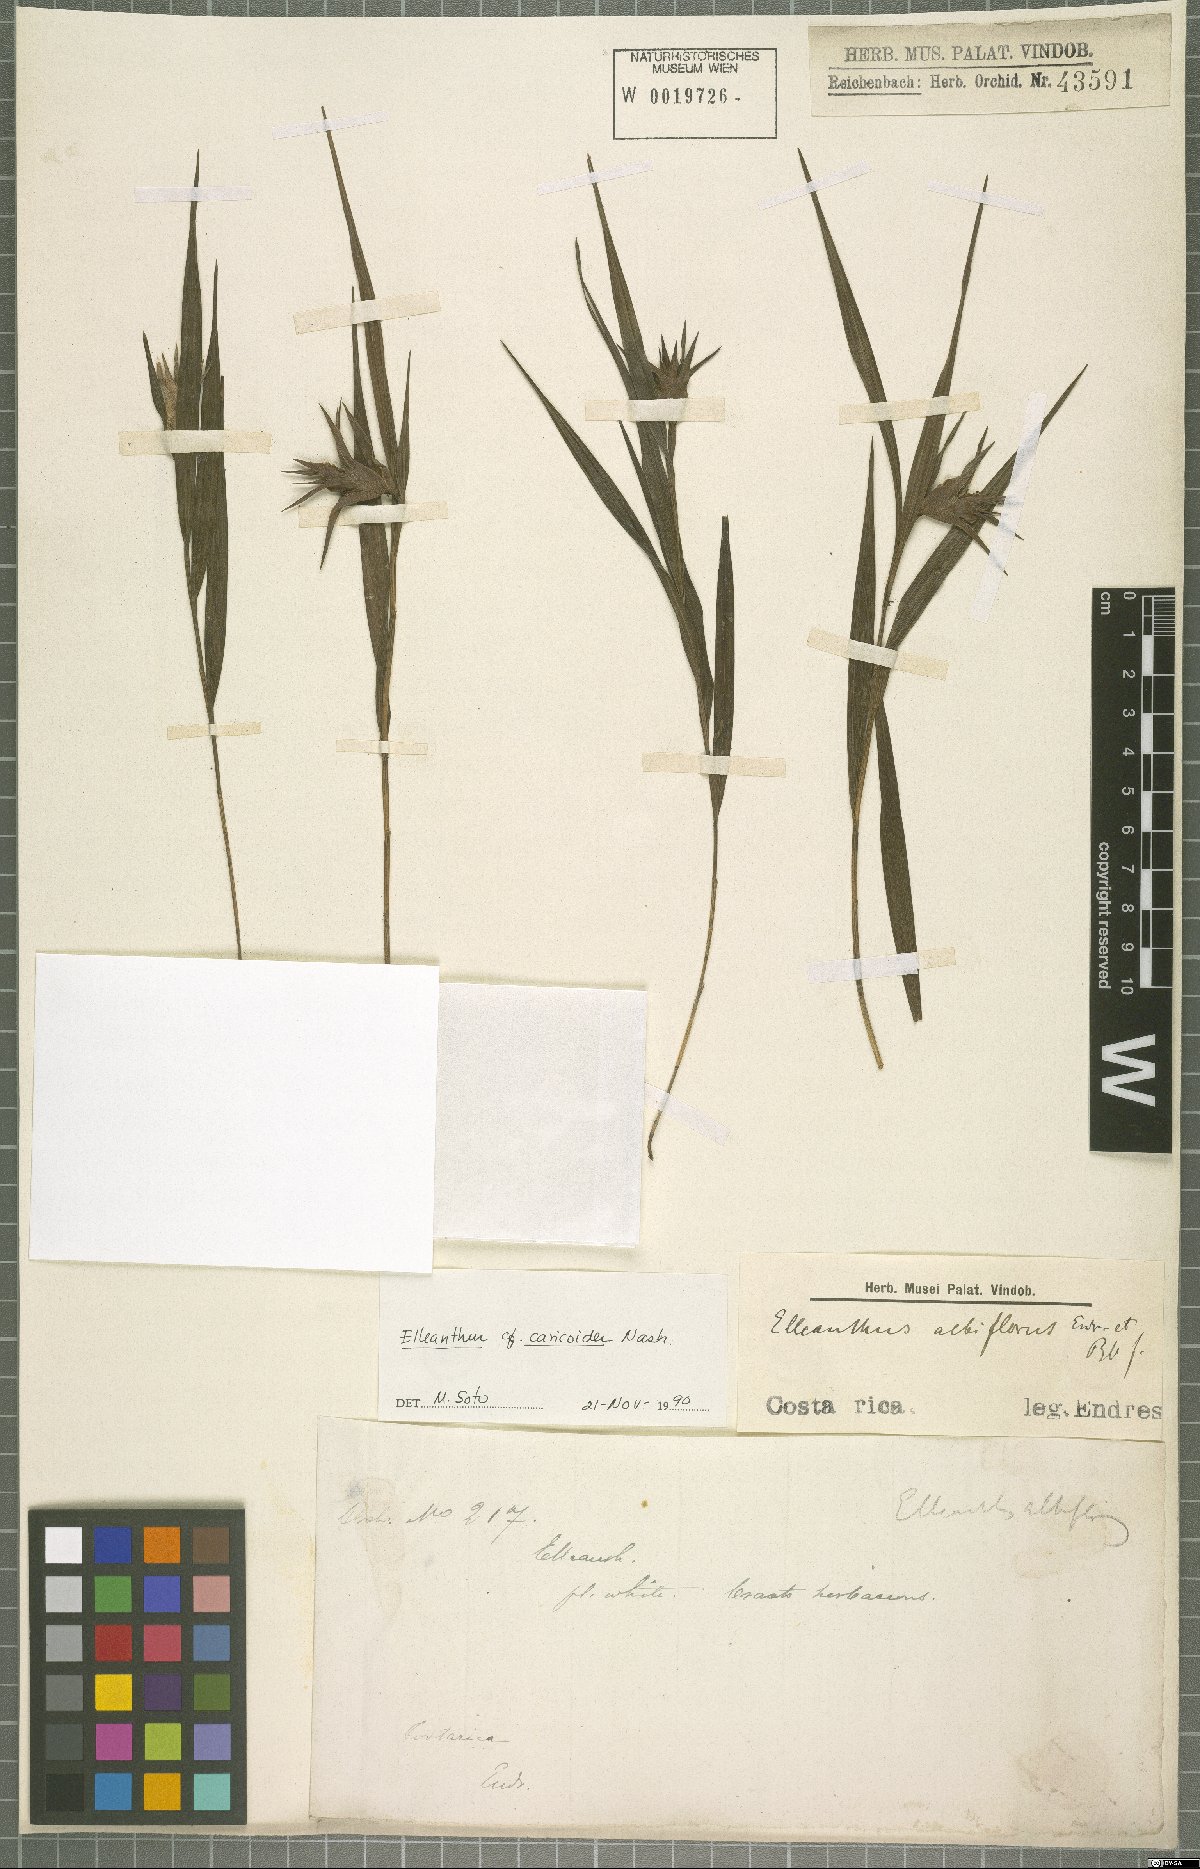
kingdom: Plantae
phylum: Tracheophyta
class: Liliopsida
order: Asparagales
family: Orchidaceae
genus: Elleanthus
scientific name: Elleanthus caricoides
